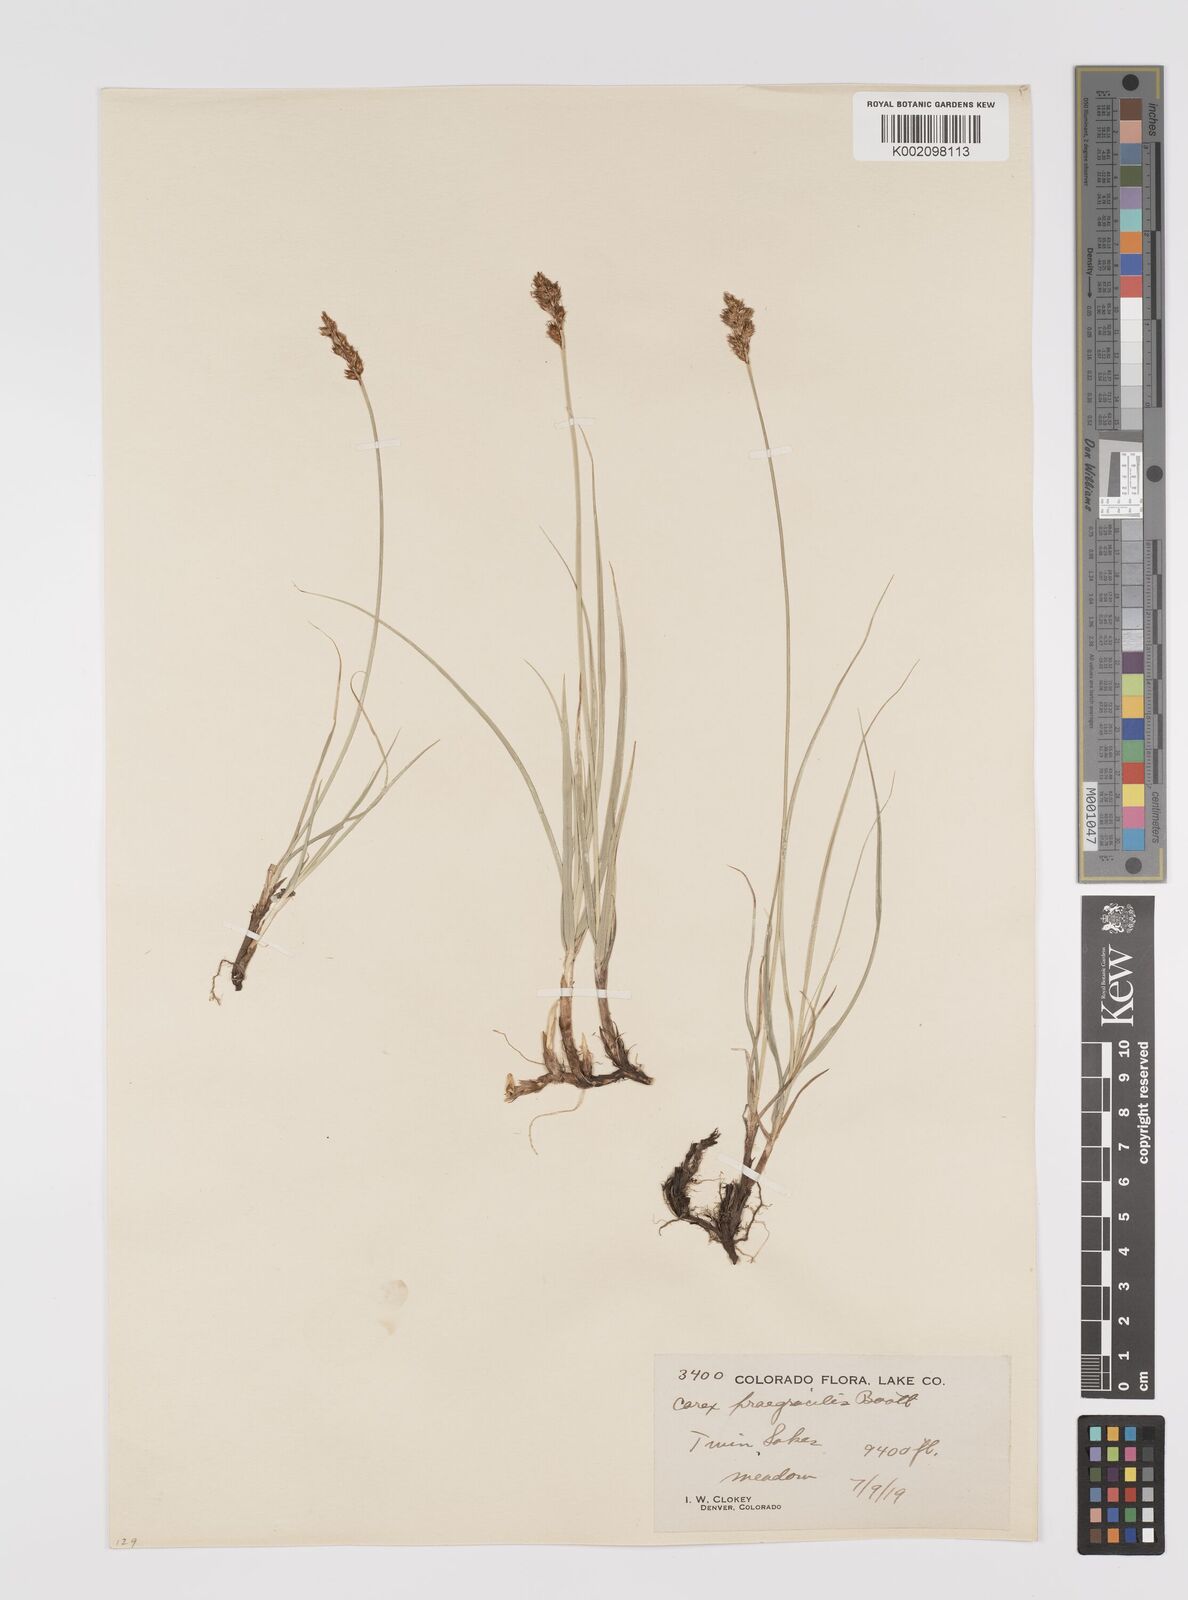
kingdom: Plantae
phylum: Tracheophyta
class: Liliopsida
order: Poales
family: Cyperaceae
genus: Carex
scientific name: Carex praegracilis
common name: Black creeper sedge
